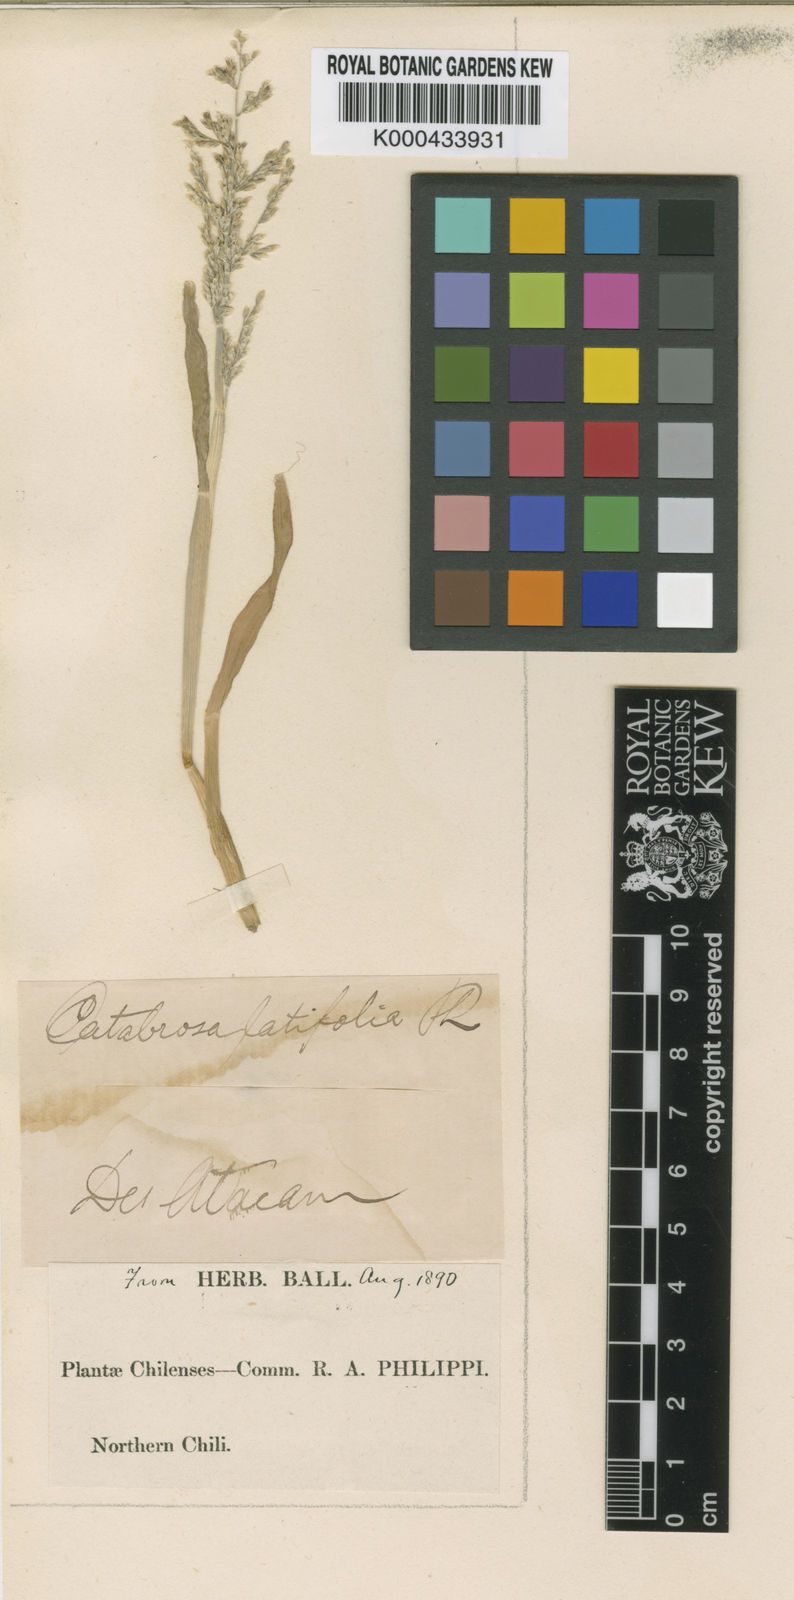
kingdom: Plantae
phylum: Tracheophyta
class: Liliopsida
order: Poales
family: Poaceae
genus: Catabrosa
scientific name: Catabrosa werdermannii
